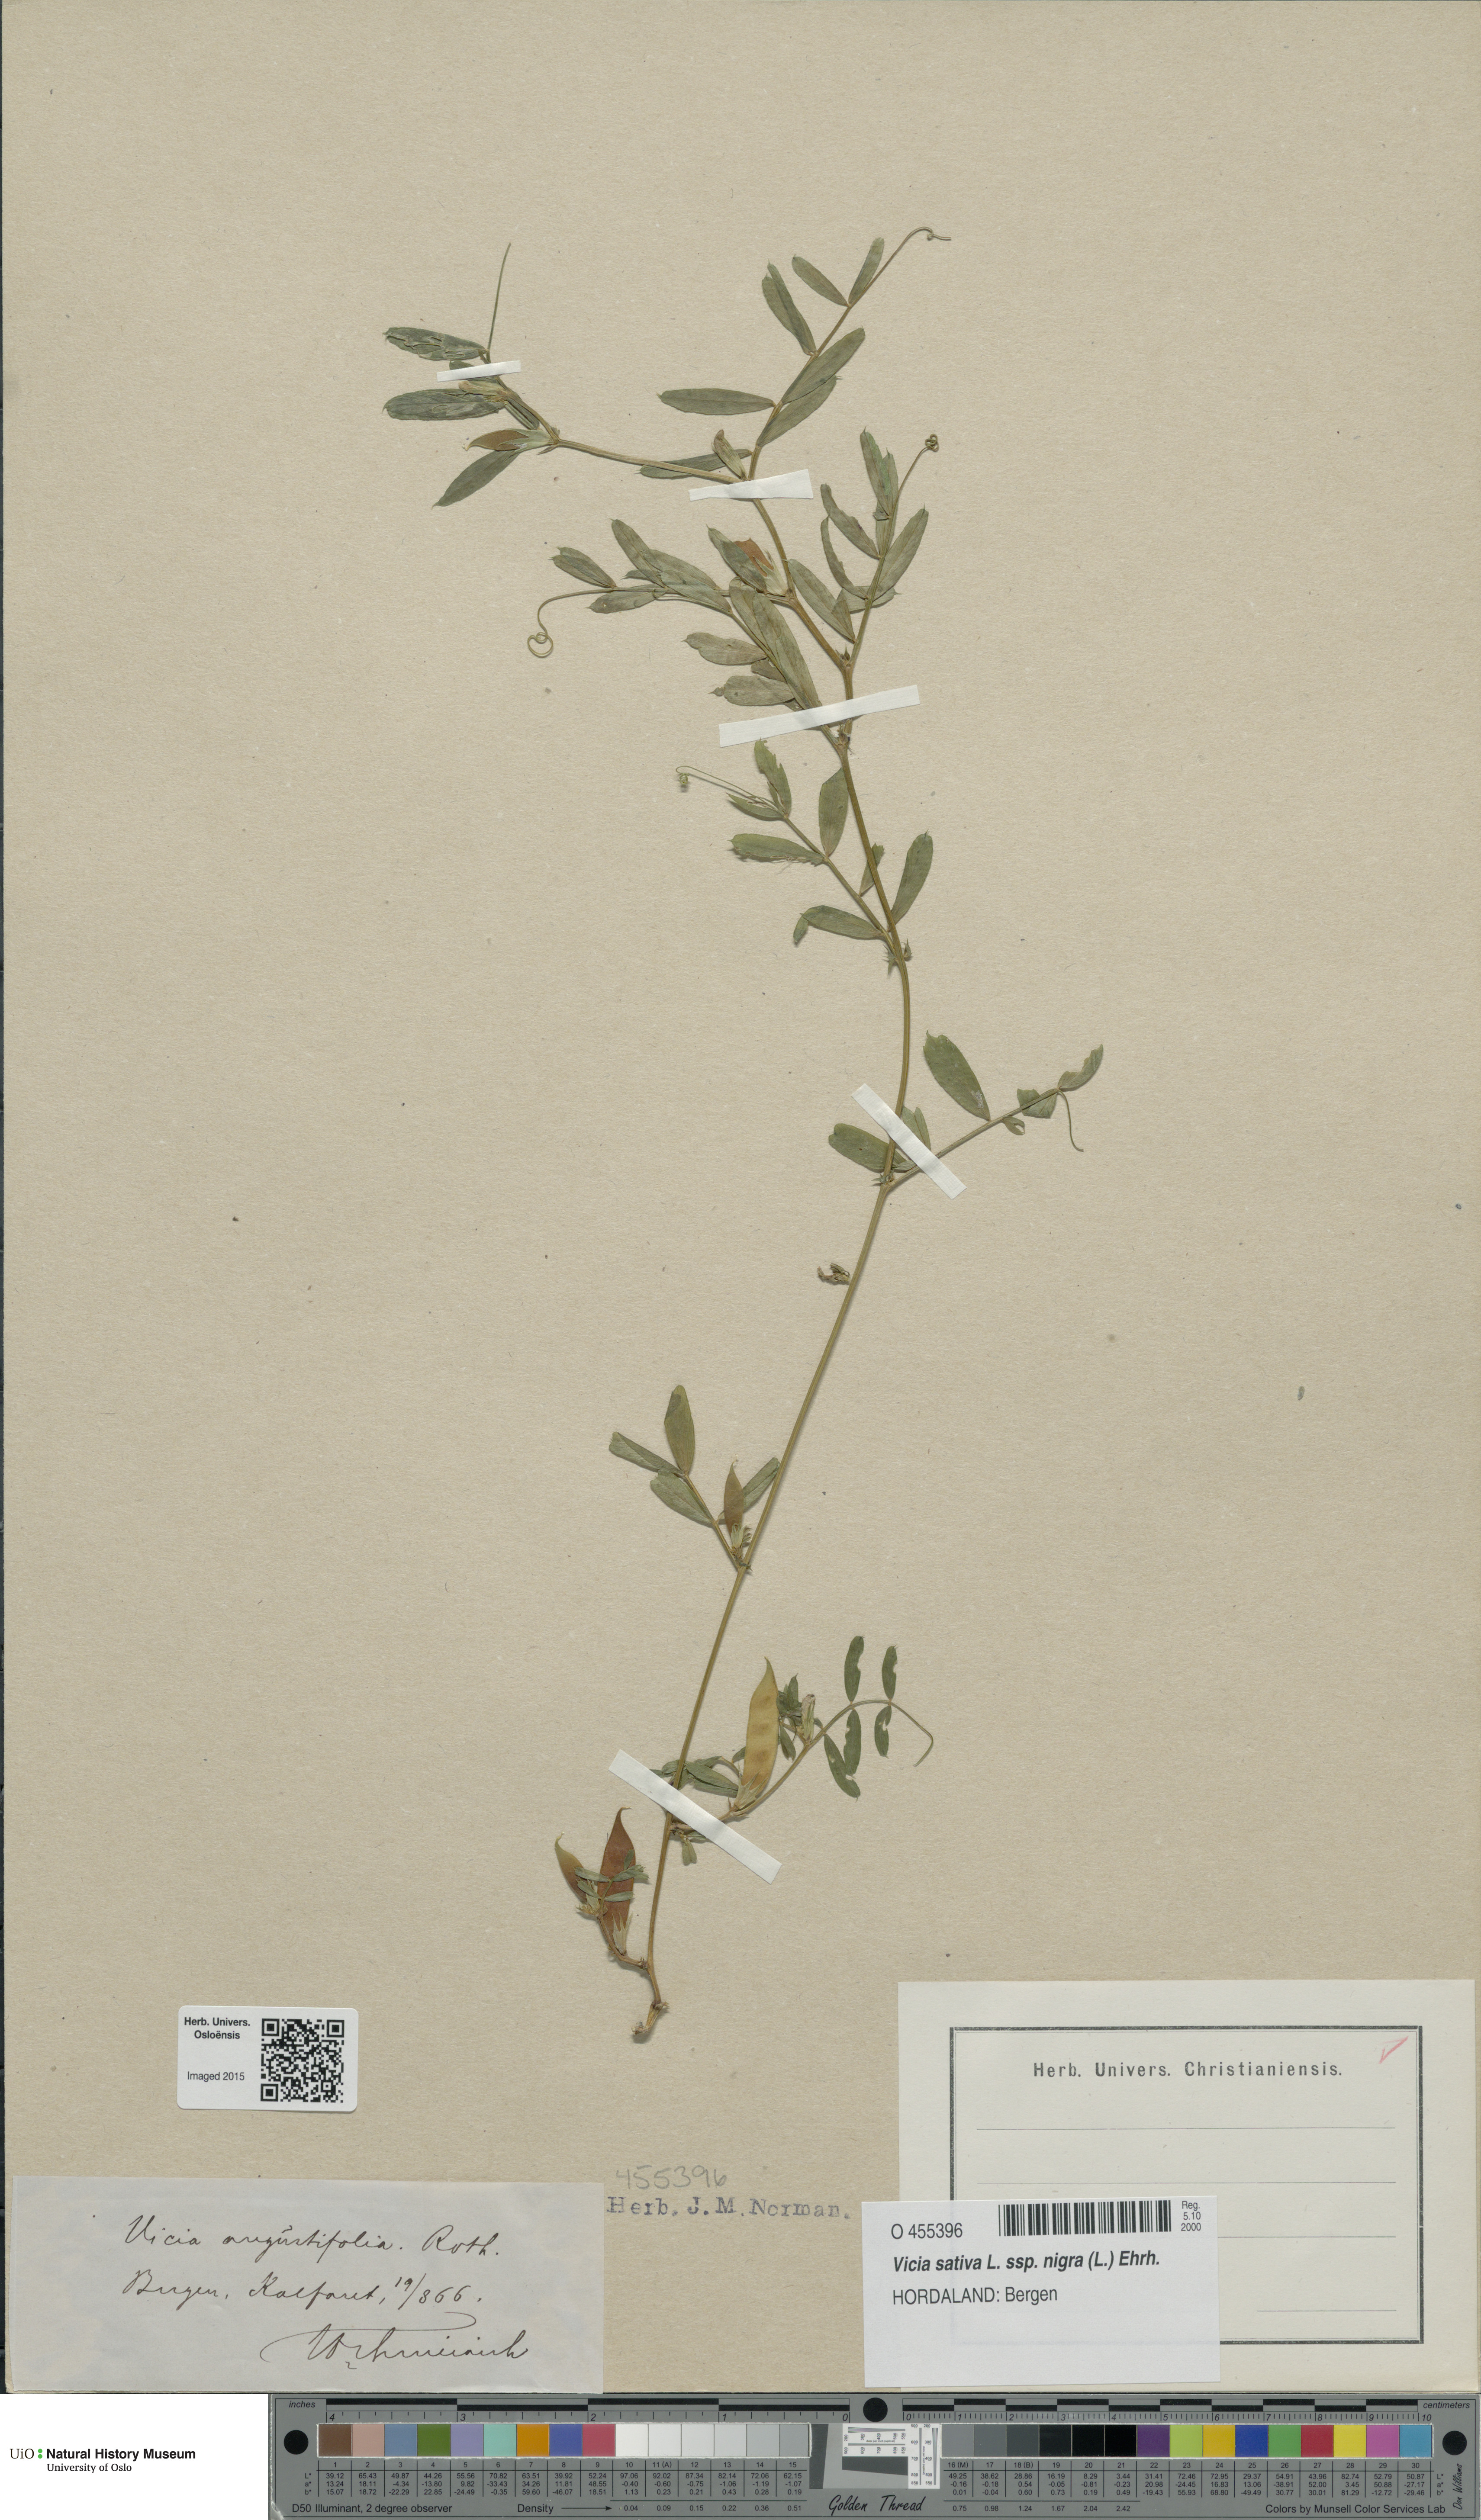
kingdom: Plantae
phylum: Tracheophyta
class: Magnoliopsida
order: Fabales
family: Fabaceae
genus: Vicia
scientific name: Vicia sativa
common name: Garden vetch
